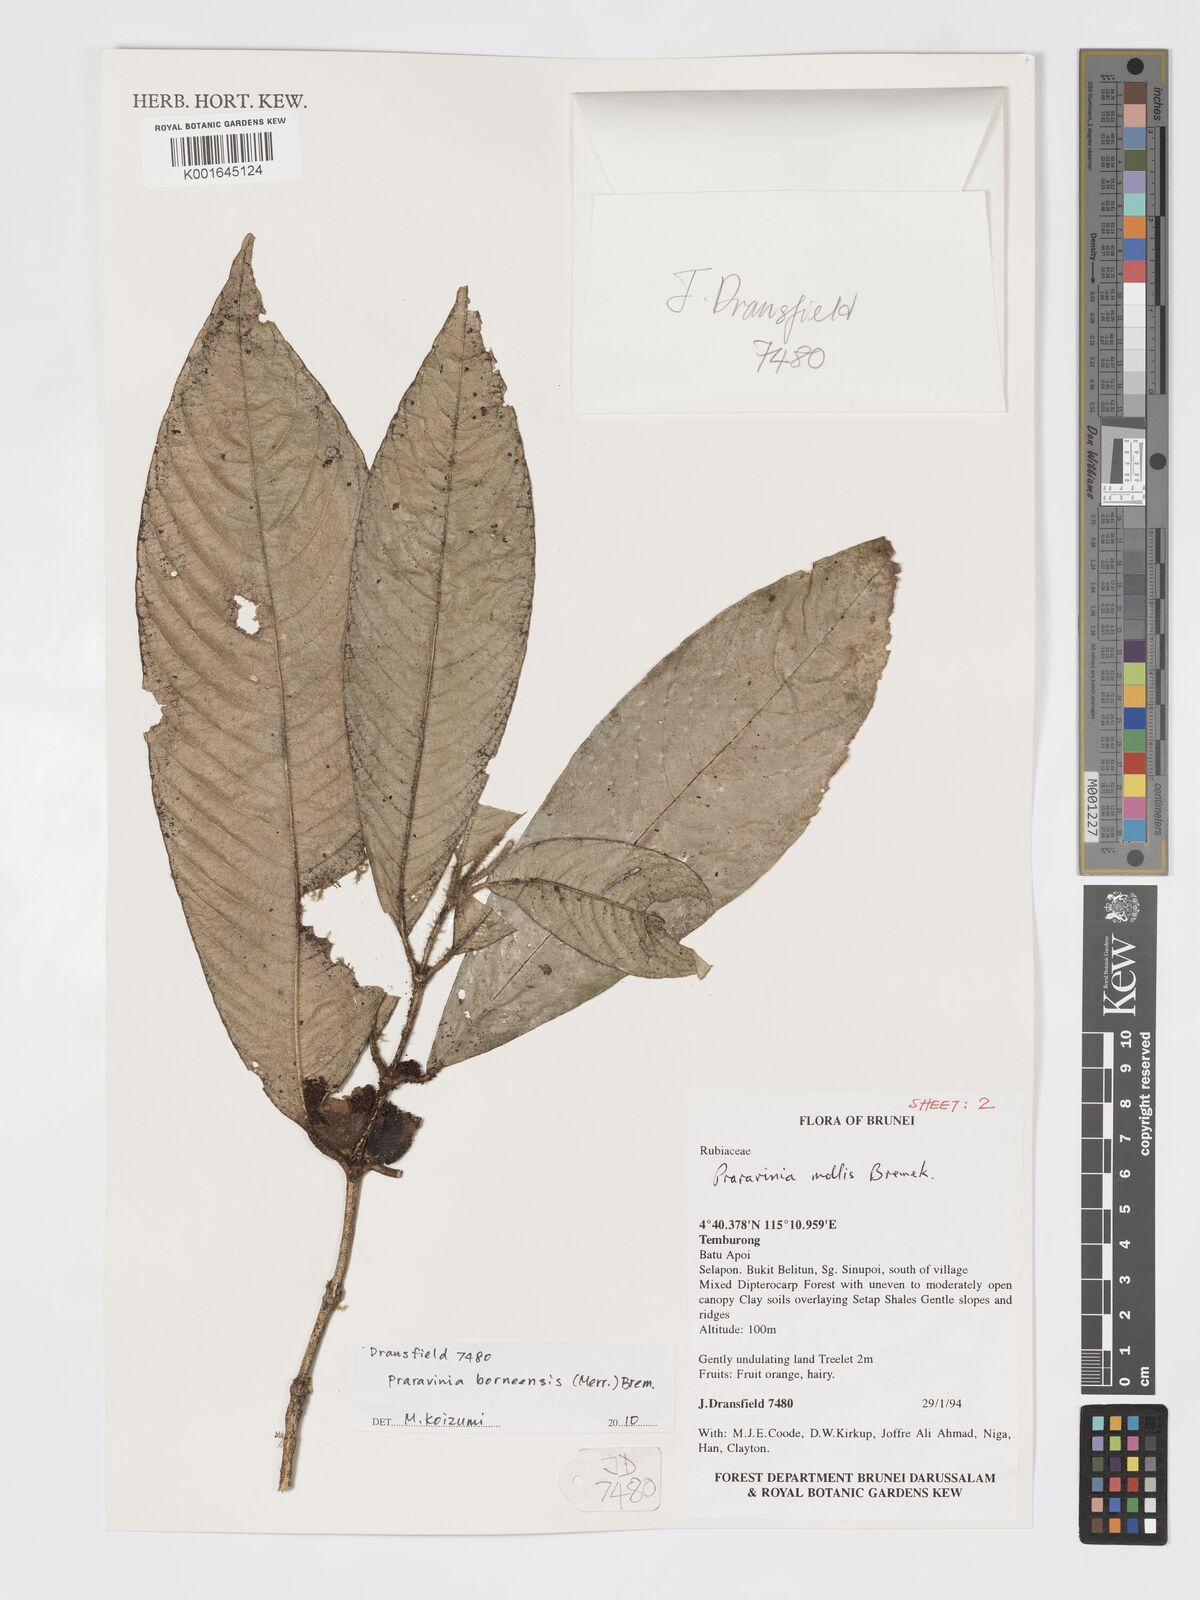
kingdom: Plantae
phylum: Tracheophyta
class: Magnoliopsida
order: Gentianales
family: Rubiaceae
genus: Praravinia
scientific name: Praravinia borneensis
